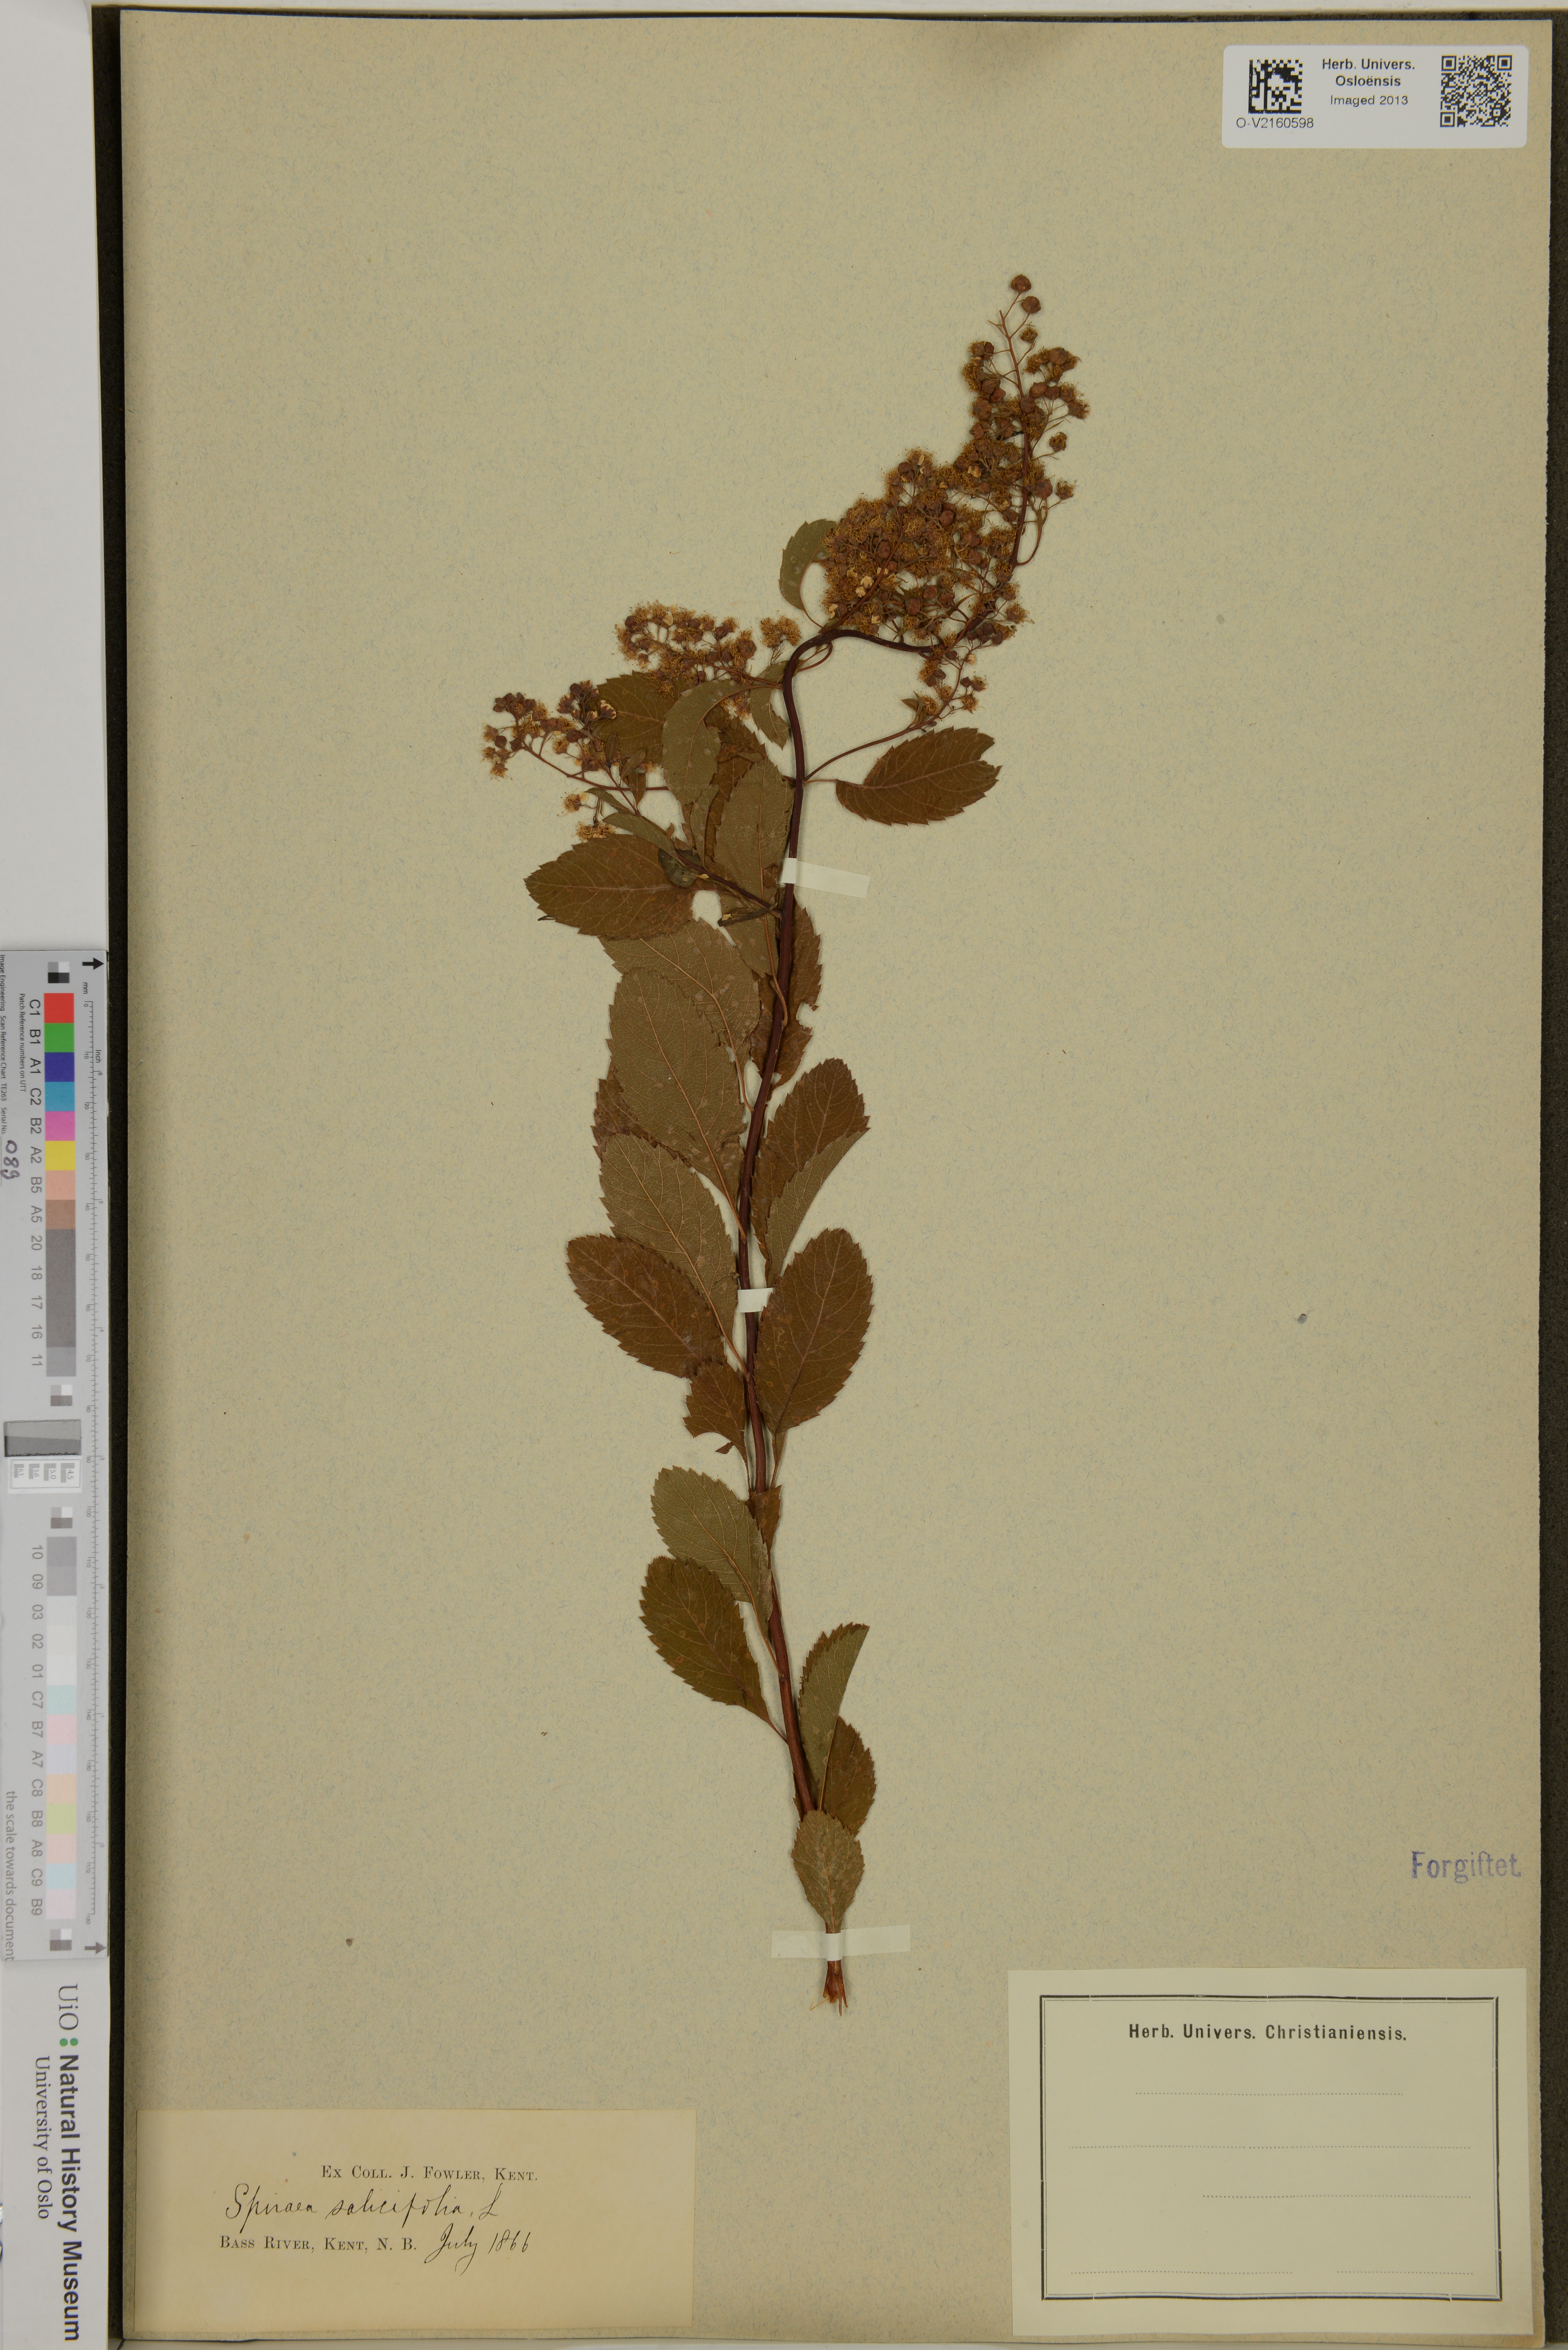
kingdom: Plantae
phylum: Tracheophyta
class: Magnoliopsida
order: Rosales
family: Rosaceae
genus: Spiraea
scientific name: Spiraea salicifolia
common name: Bridewort
